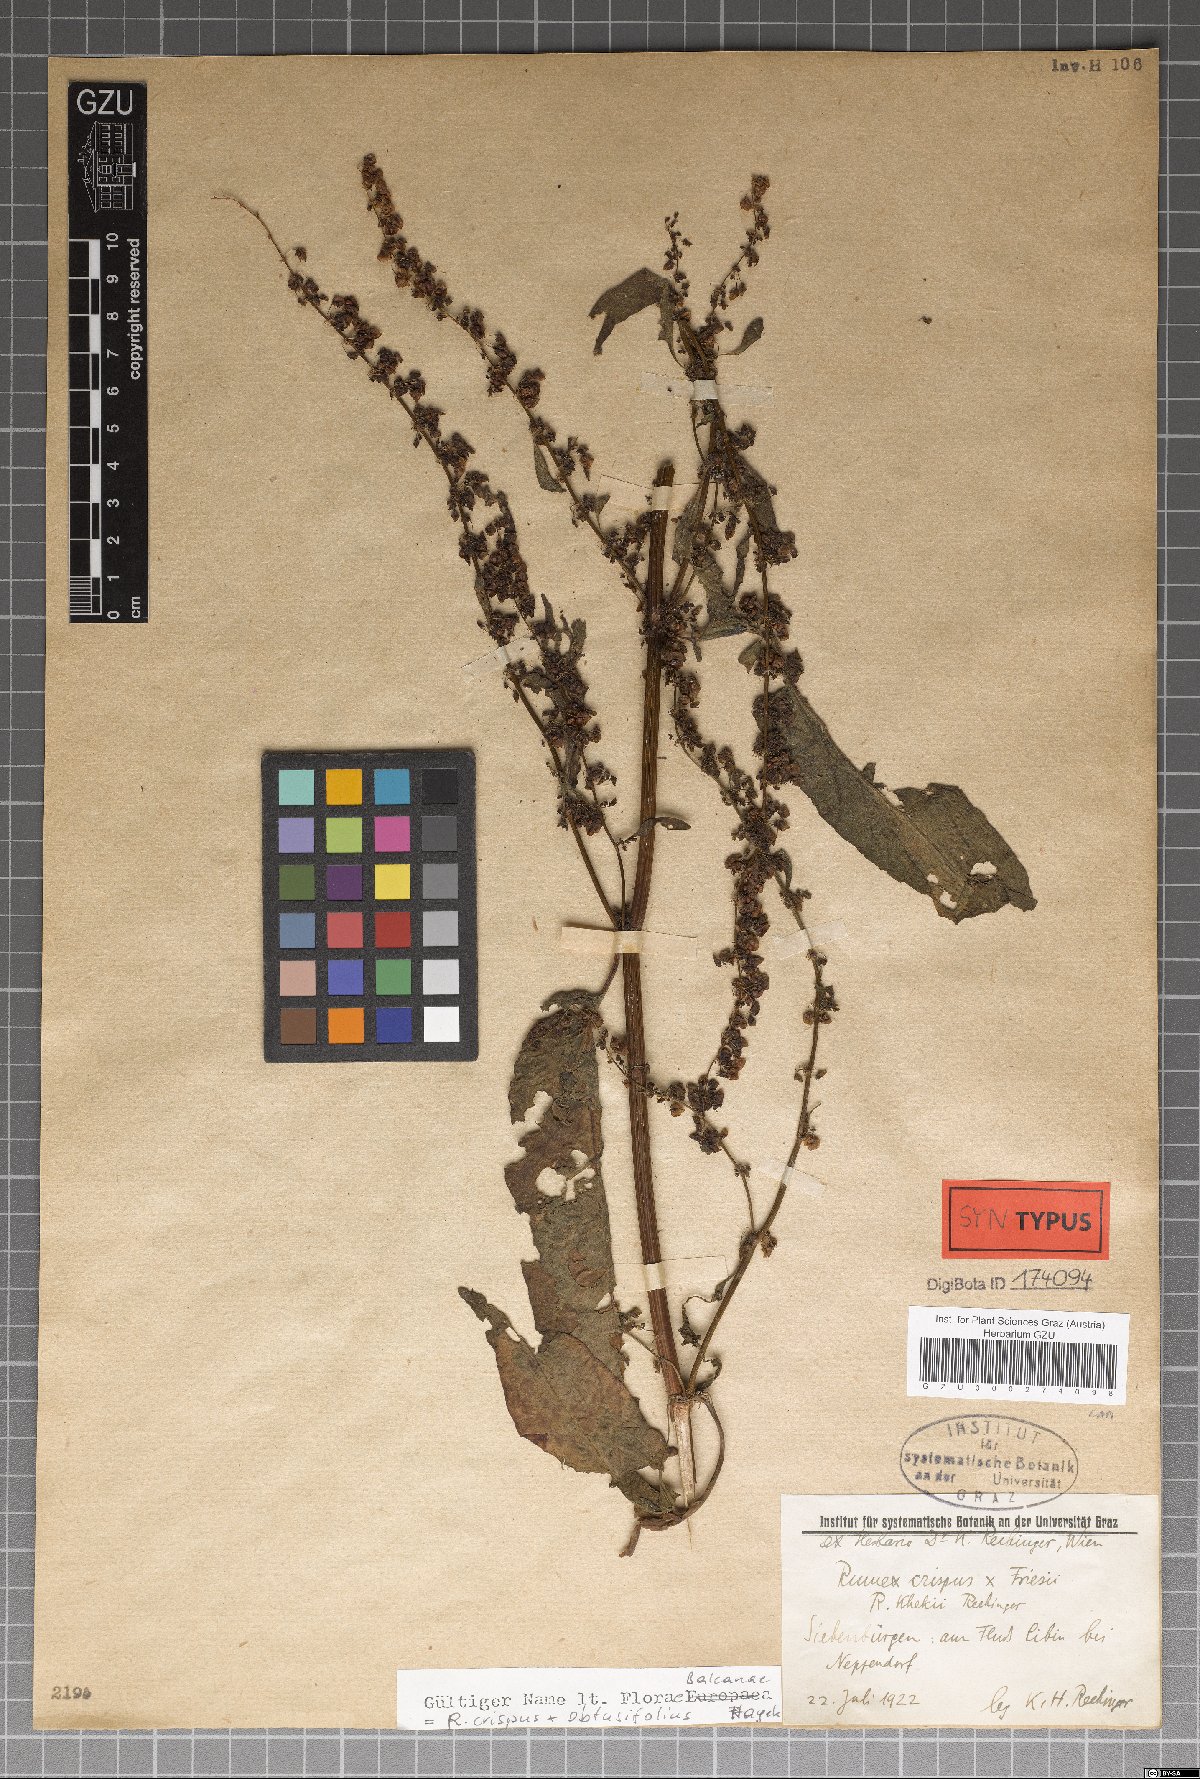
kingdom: Plantae
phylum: Tracheophyta
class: Magnoliopsida
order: Caryophyllales
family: Polygonaceae
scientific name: Polygonaceae
